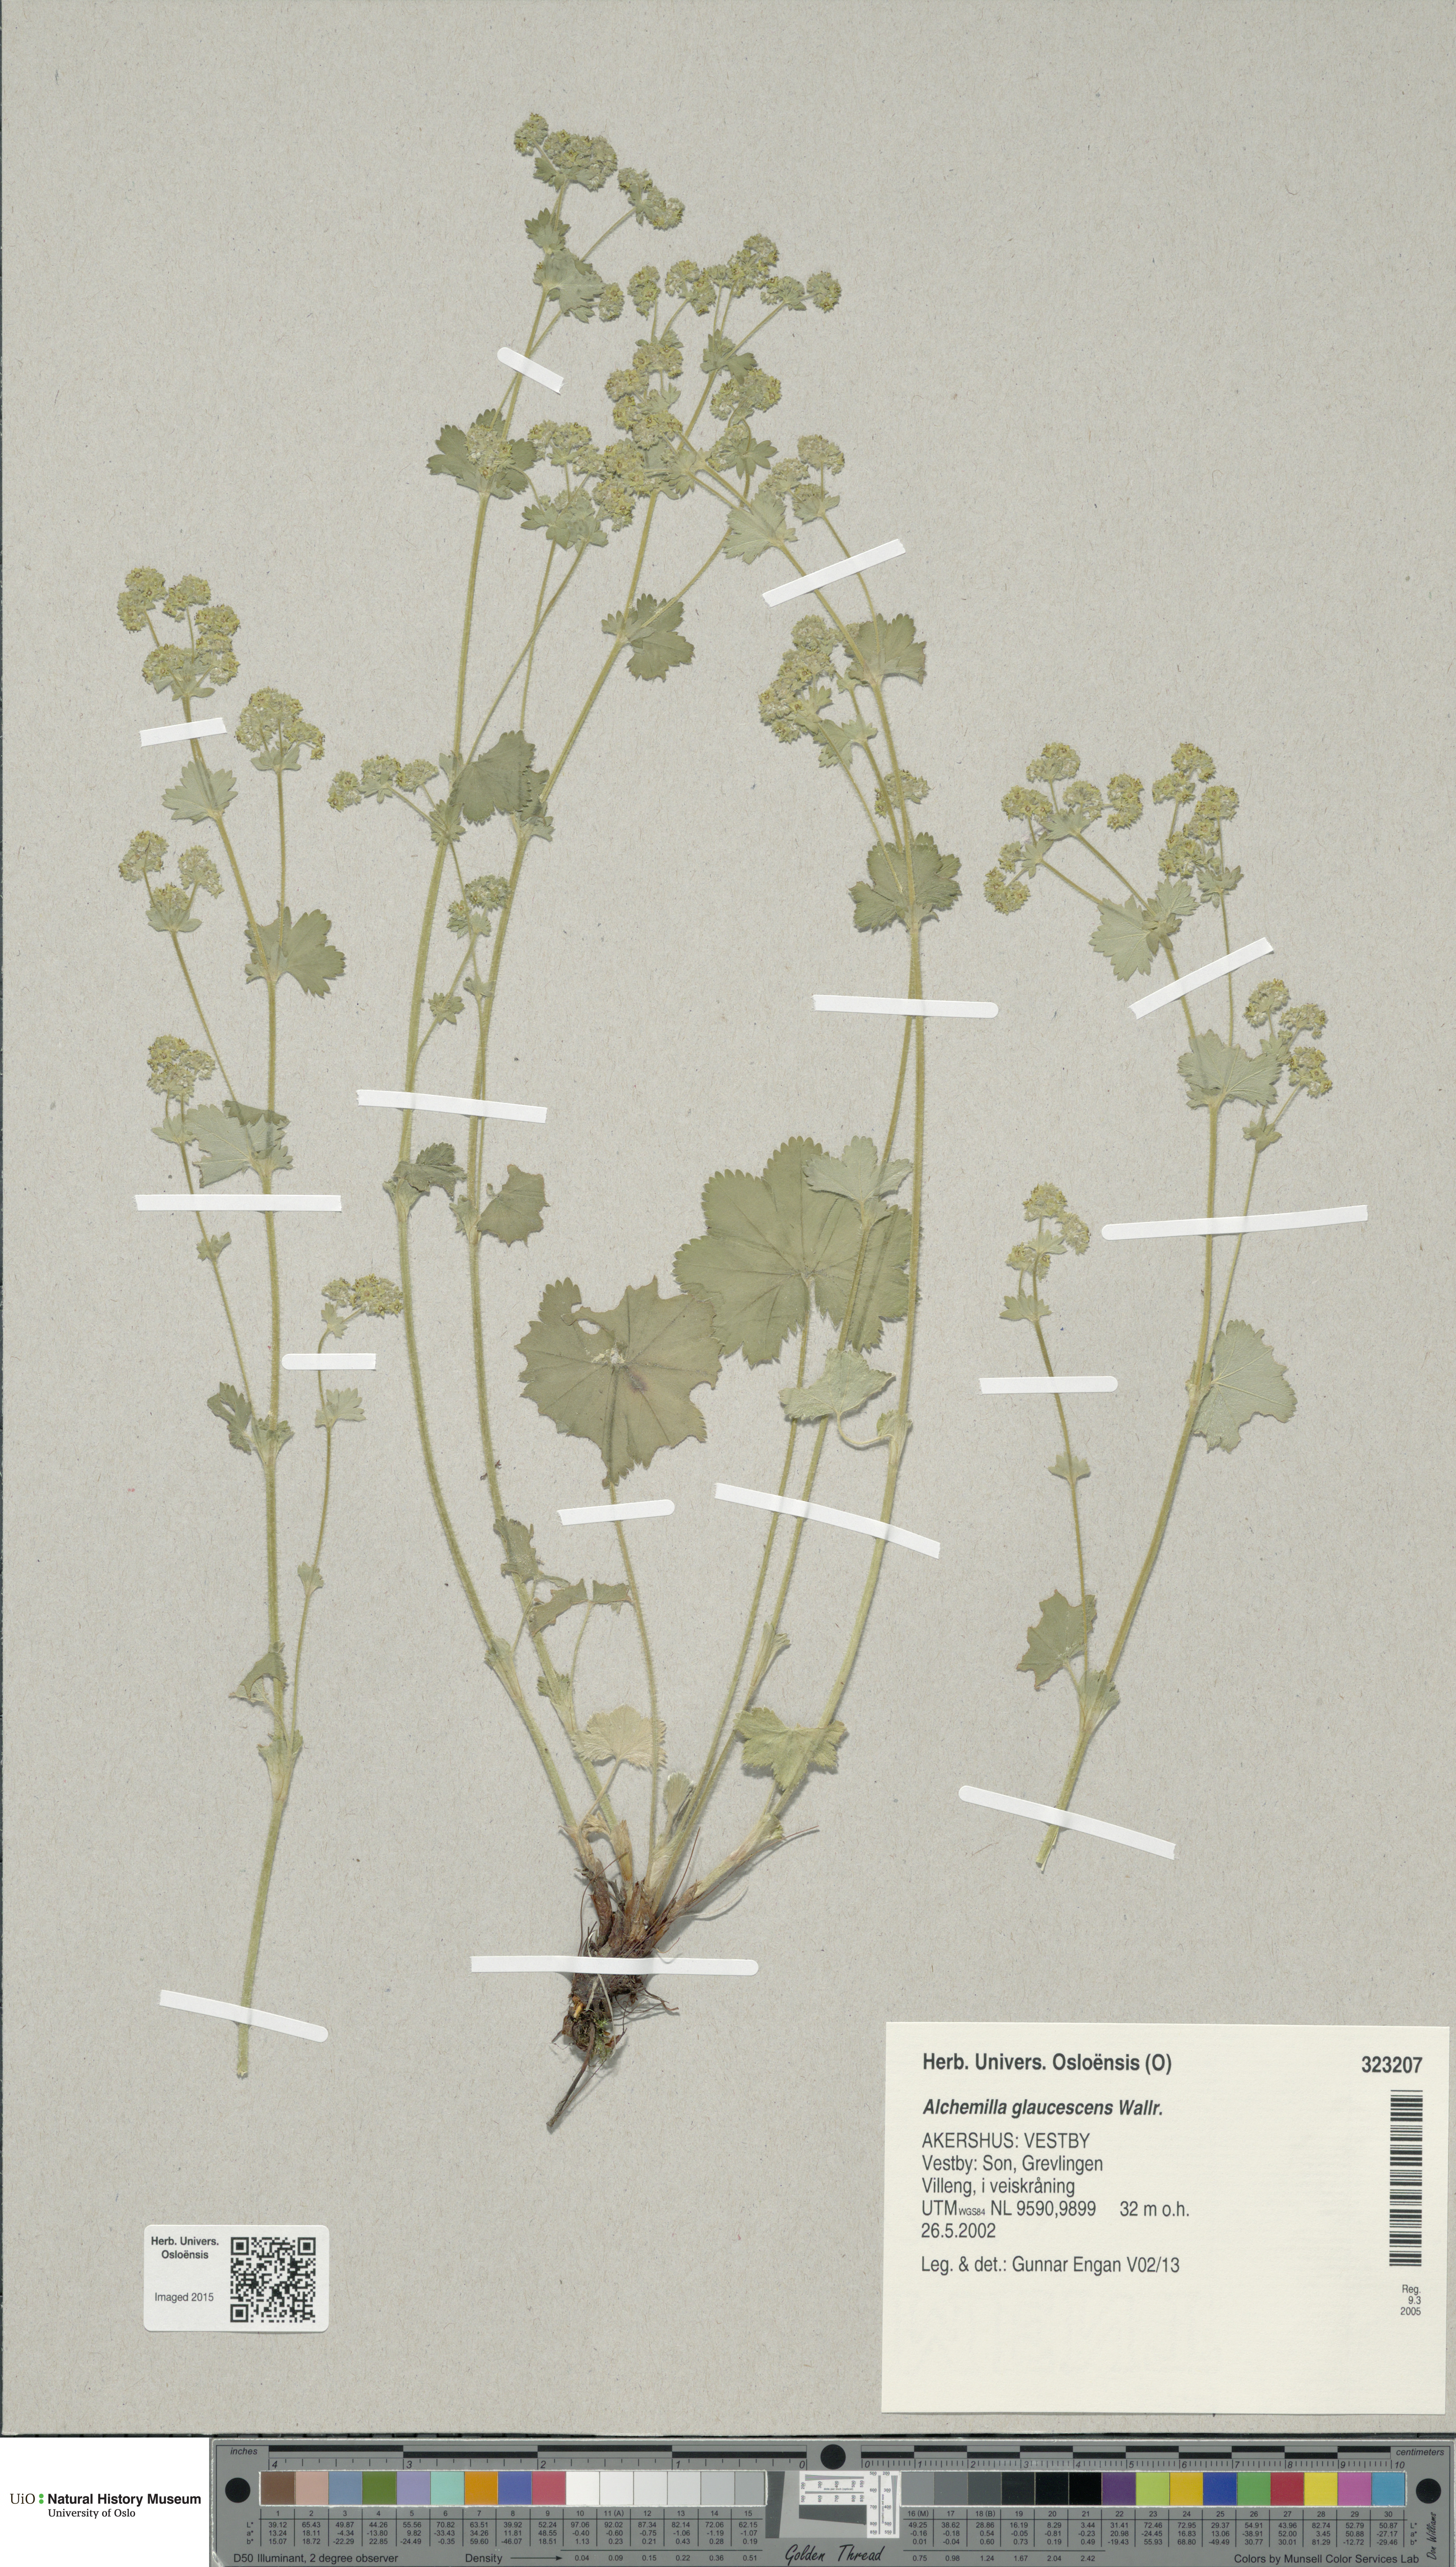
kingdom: Plantae
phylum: Tracheophyta
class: Magnoliopsida
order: Rosales
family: Rosaceae
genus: Alchemilla
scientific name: Alchemilla glaucescens
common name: Silky lady's mantle
